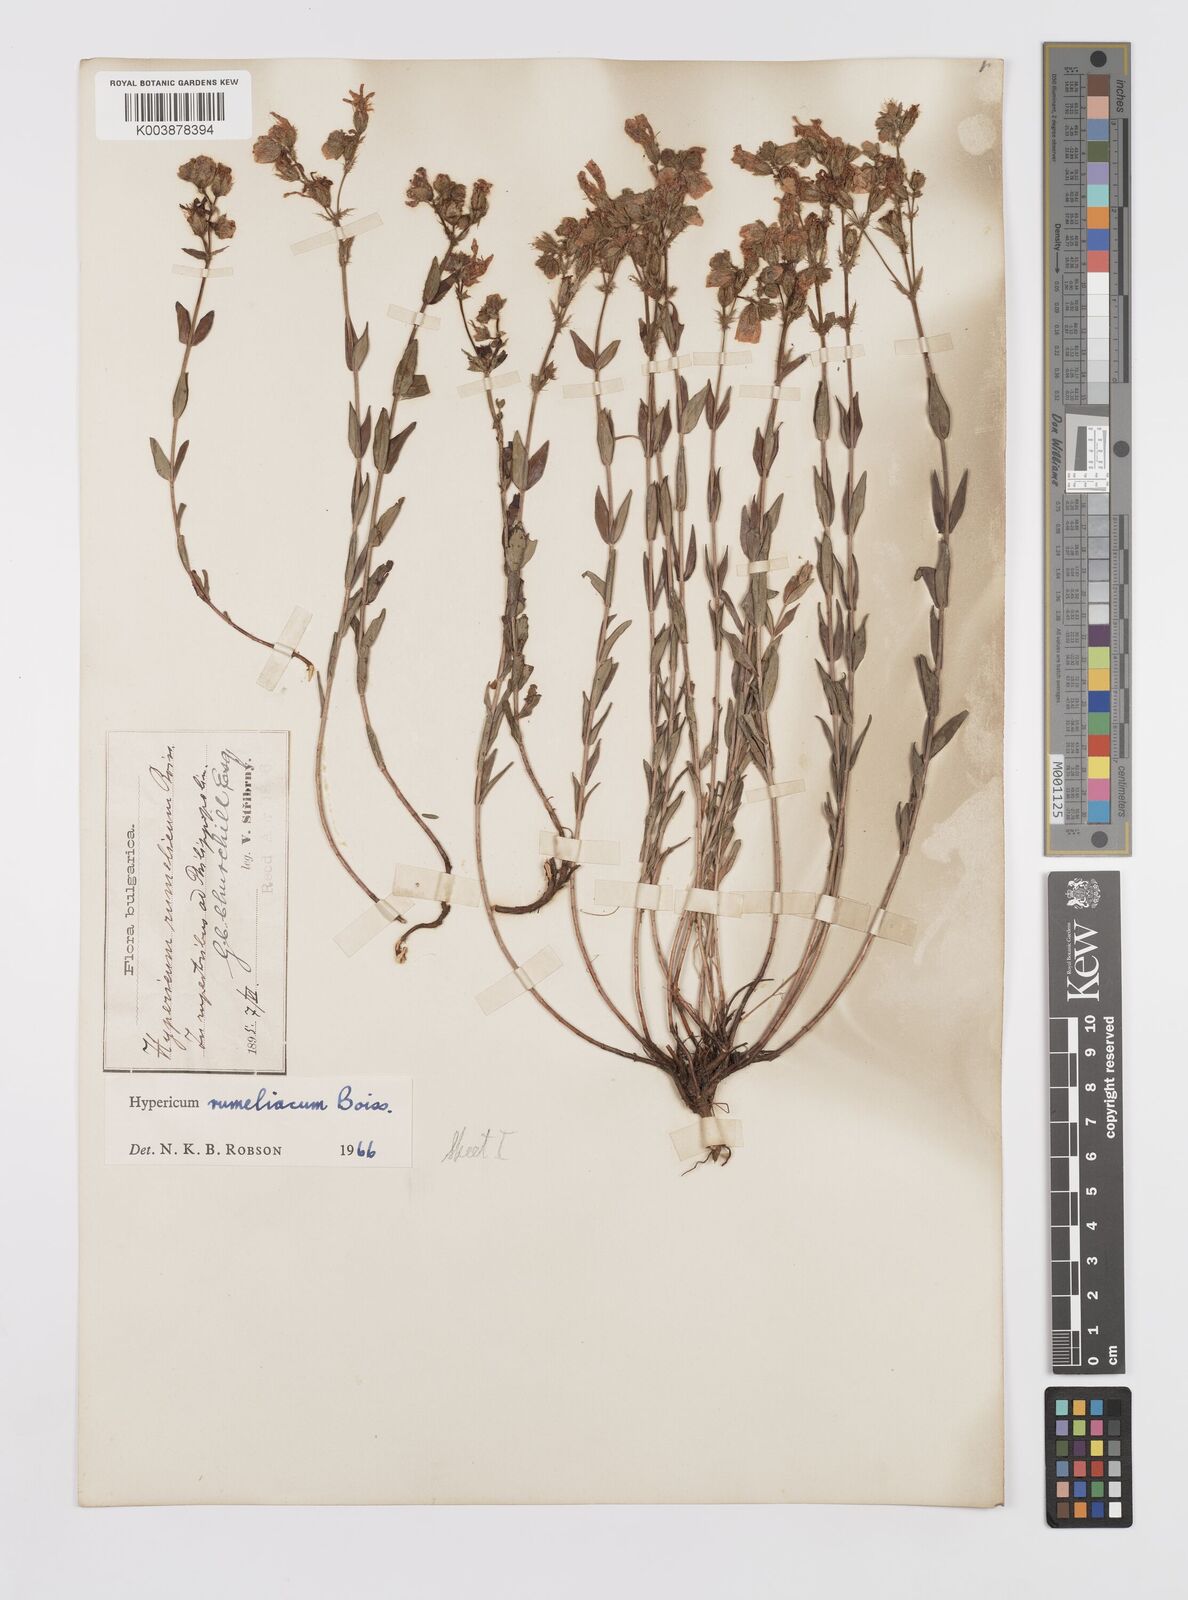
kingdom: Plantae
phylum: Tracheophyta
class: Magnoliopsida
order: Malpighiales
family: Hypericaceae
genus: Hypericum
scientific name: Hypericum rumeliacum
